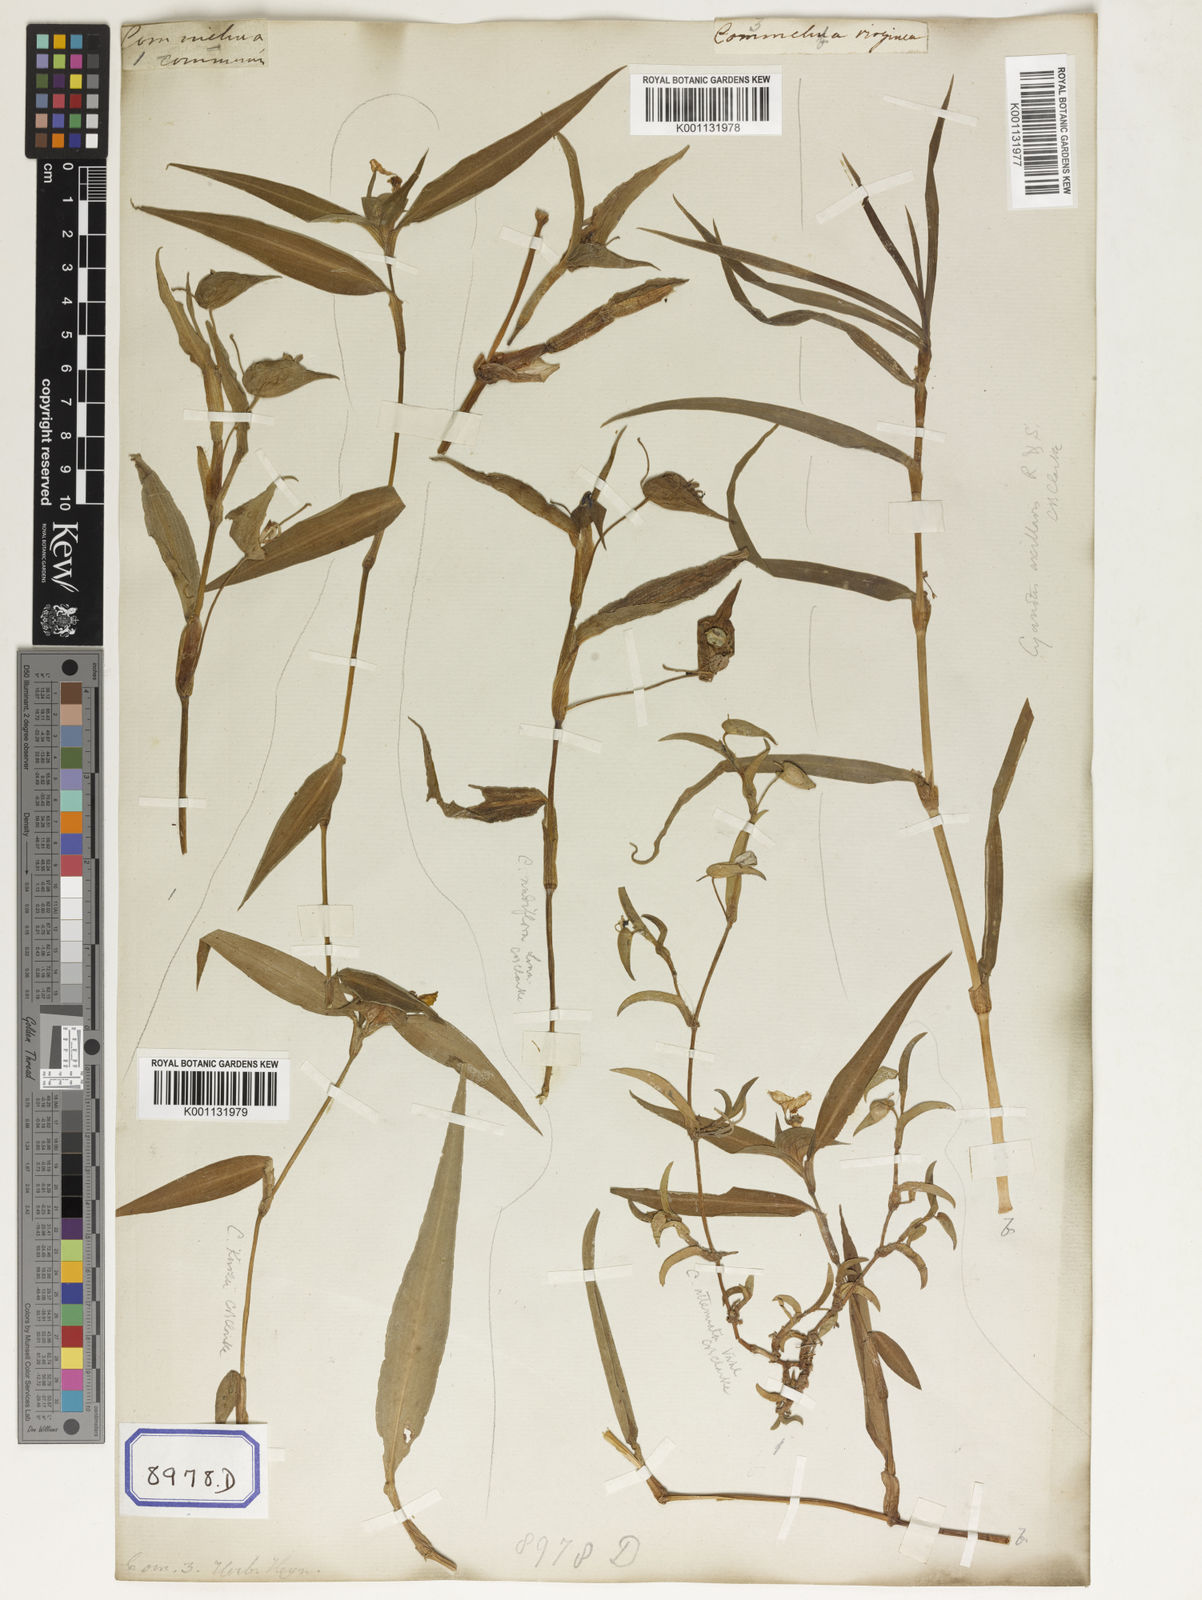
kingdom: Plantae
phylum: Tracheophyta
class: Liliopsida
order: Commelinales
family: Commelinaceae
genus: Commelina
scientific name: Commelina communis
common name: Asiatic dayflower
